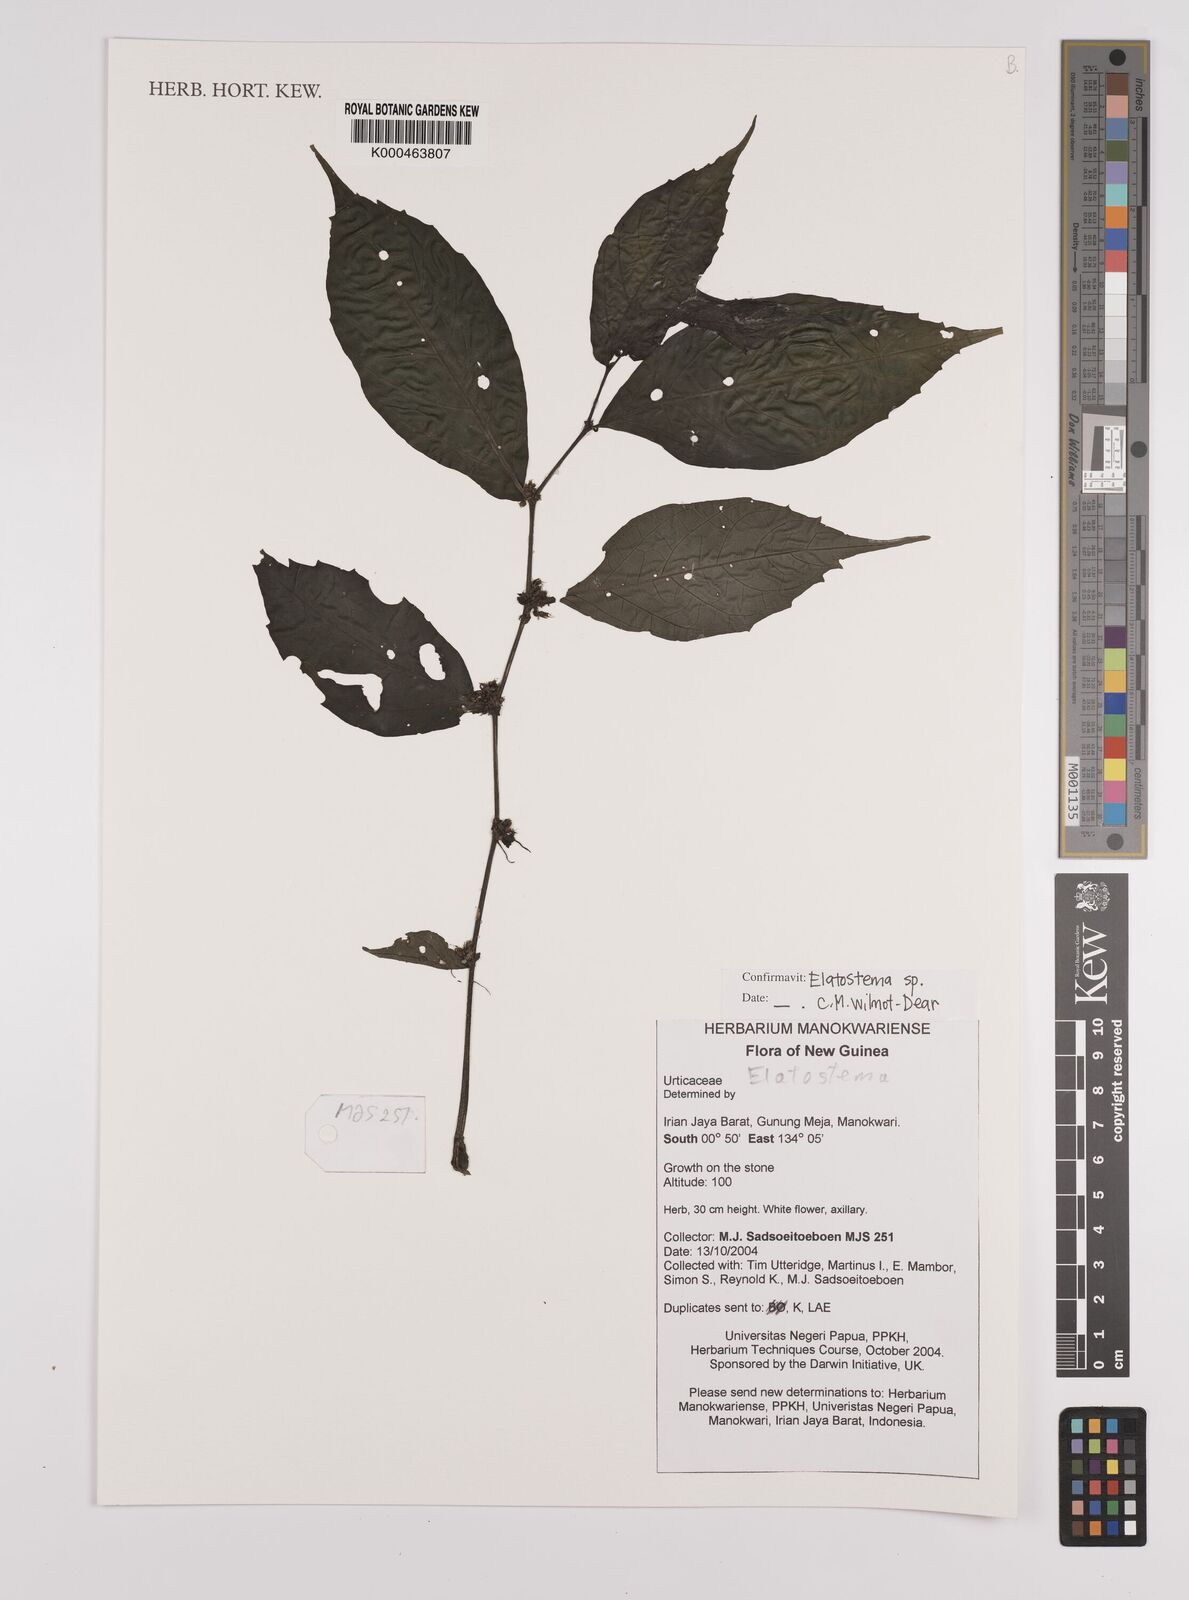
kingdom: Plantae
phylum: Tracheophyta
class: Magnoliopsida
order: Rosales
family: Urticaceae
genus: Elatostema
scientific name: Elatostema
